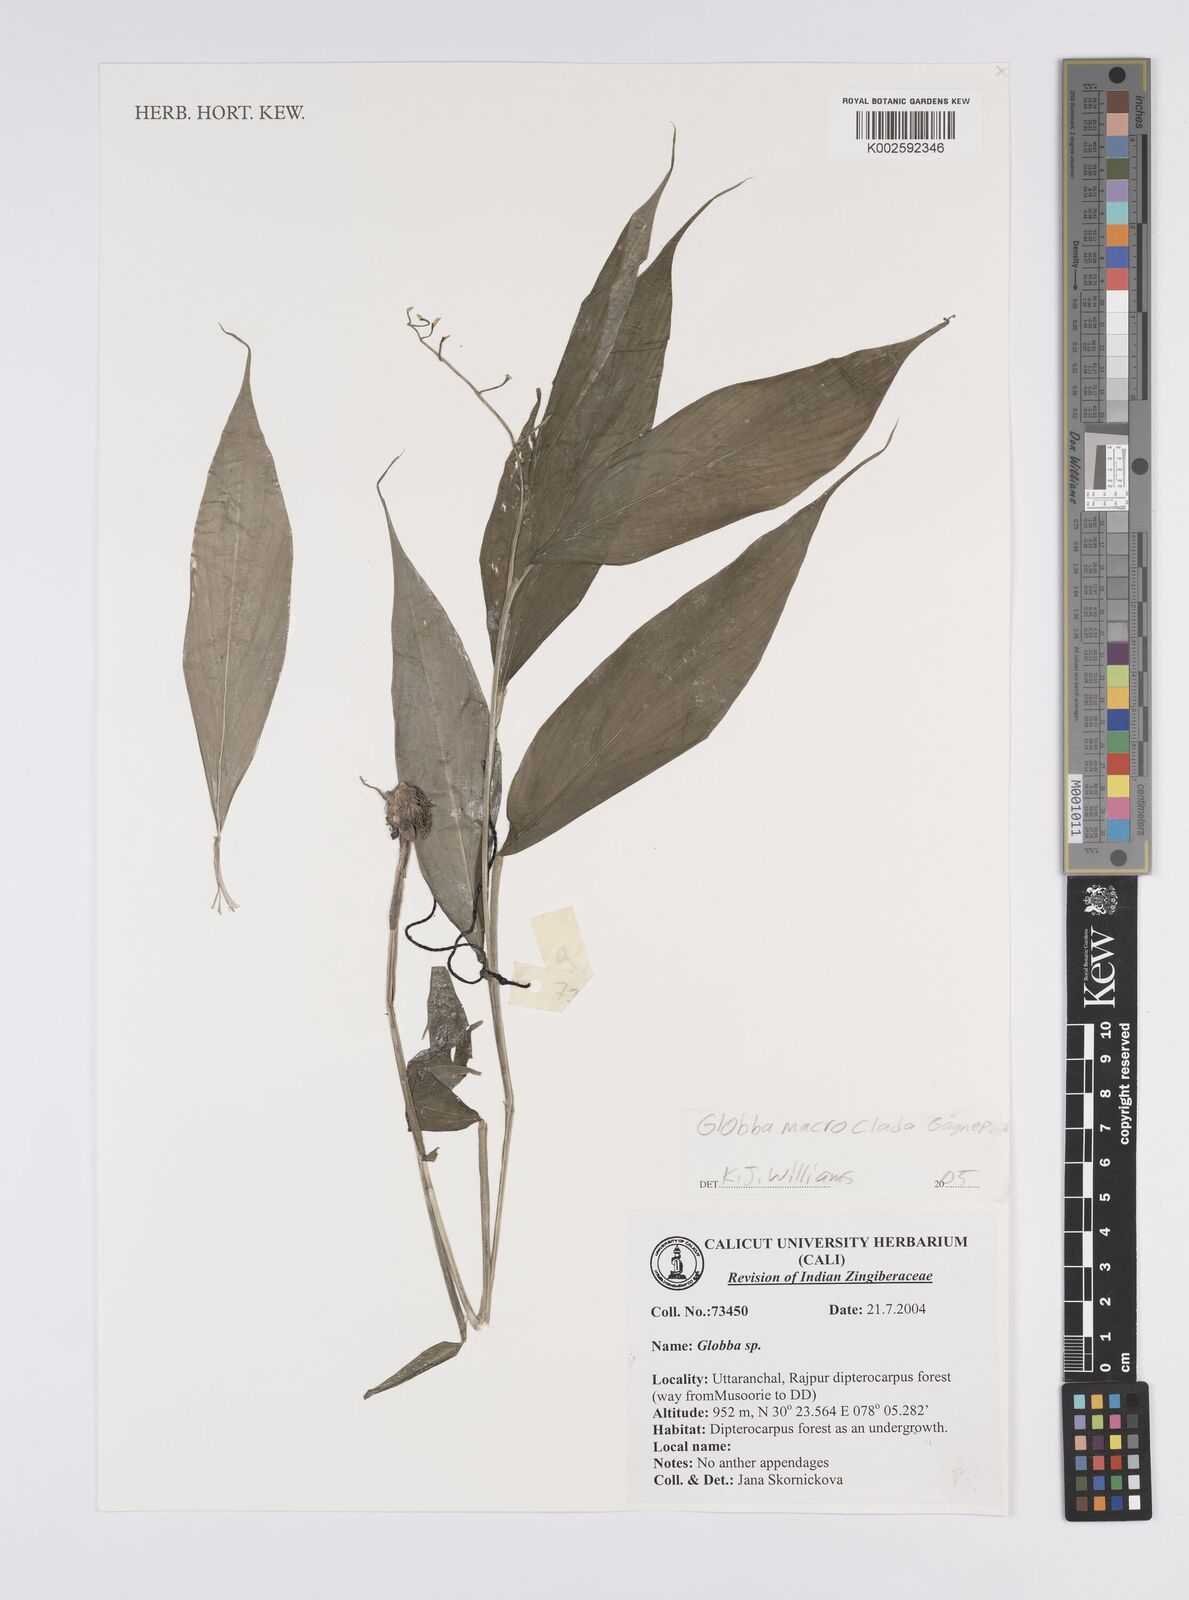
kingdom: Plantae
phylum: Tracheophyta
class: Liliopsida
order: Zingiberales
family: Zingiberaceae
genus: Globba
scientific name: Globba macroclada
